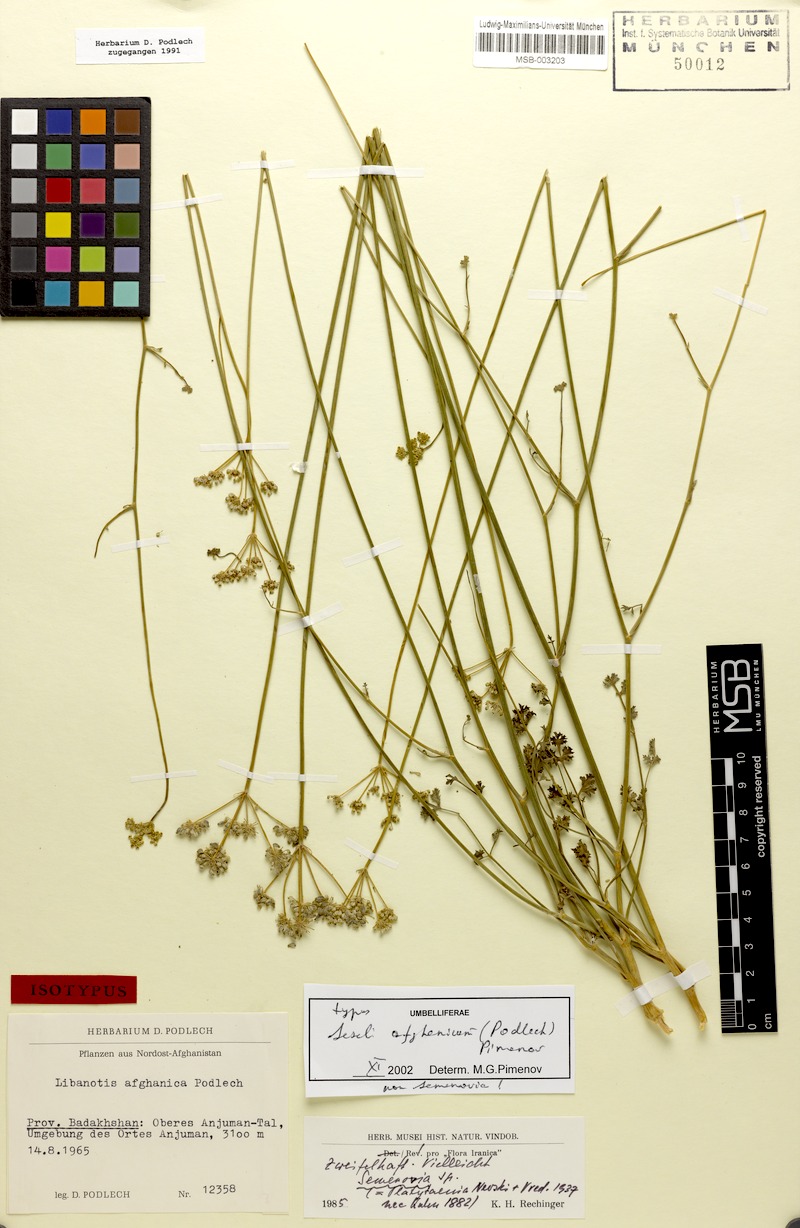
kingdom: Plantae
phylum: Tracheophyta
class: Magnoliopsida
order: Apiales
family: Apiaceae
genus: Seseli
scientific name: Seseli afghanicum
